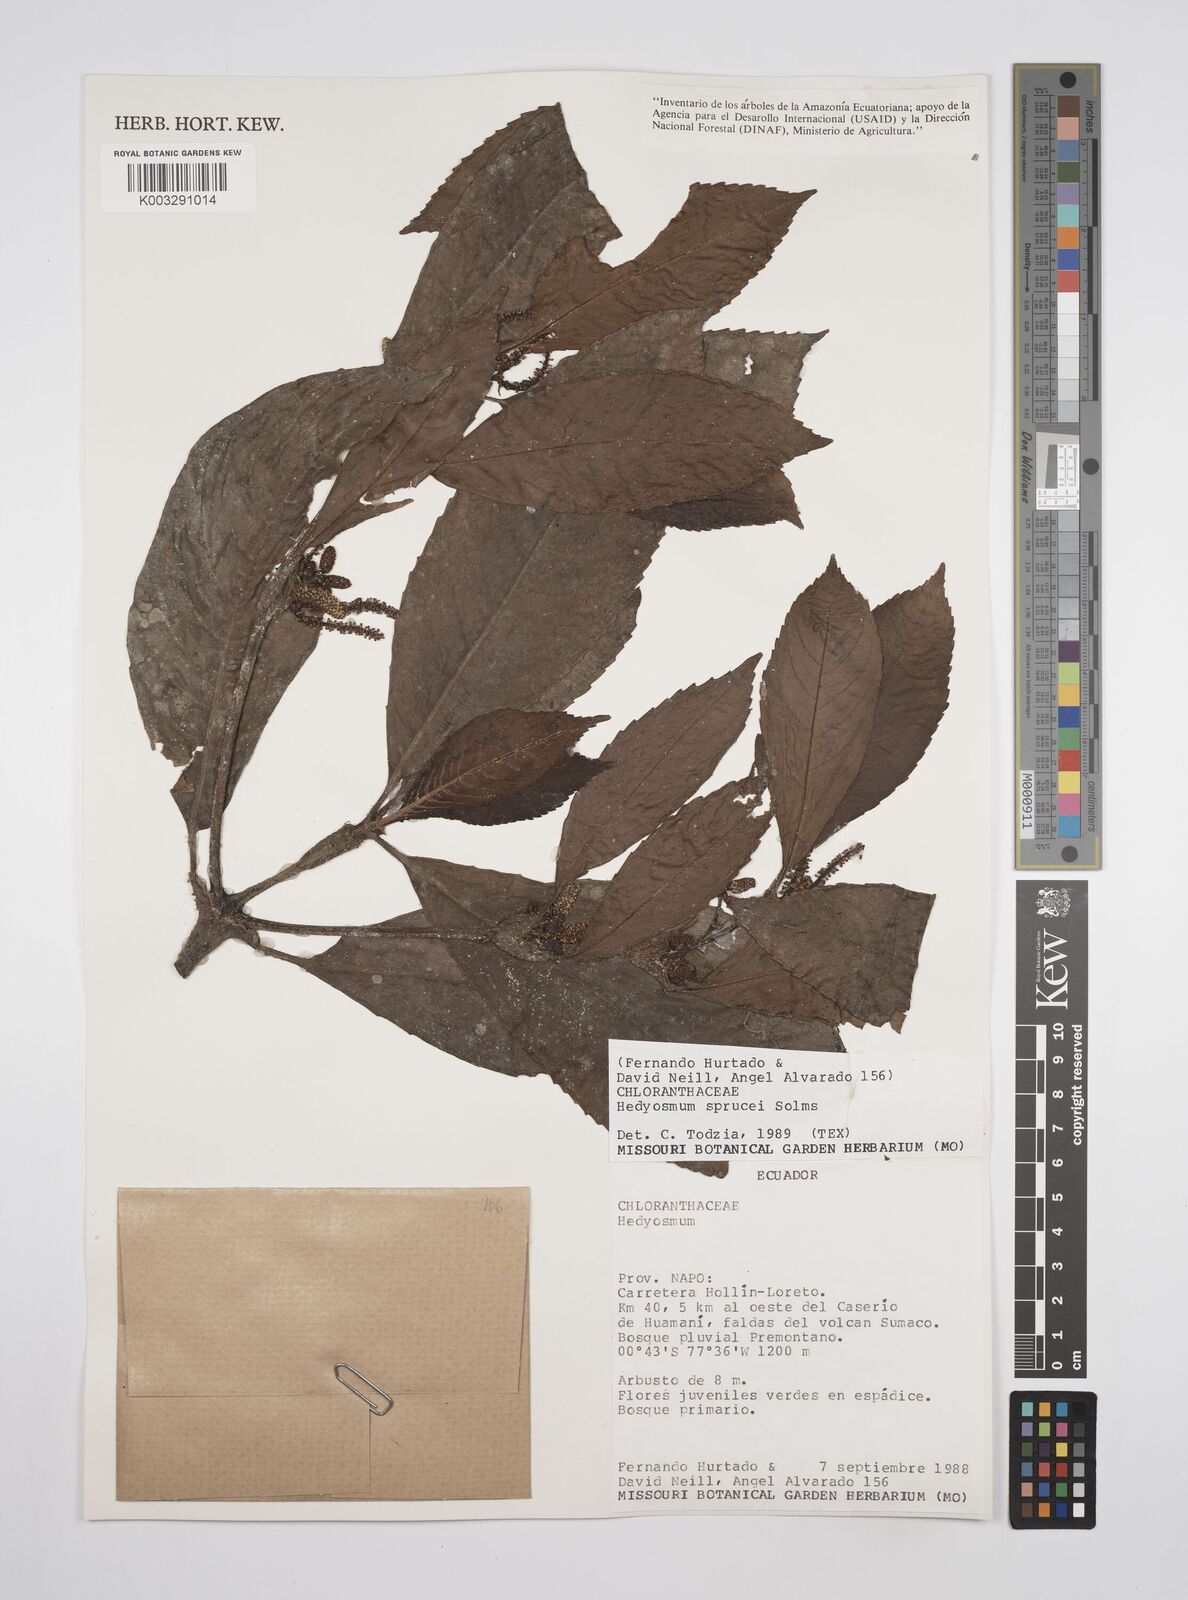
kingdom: Plantae
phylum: Tracheophyta
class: Magnoliopsida
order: Chloranthales
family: Chloranthaceae
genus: Hedyosmum
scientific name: Hedyosmum sprucei
